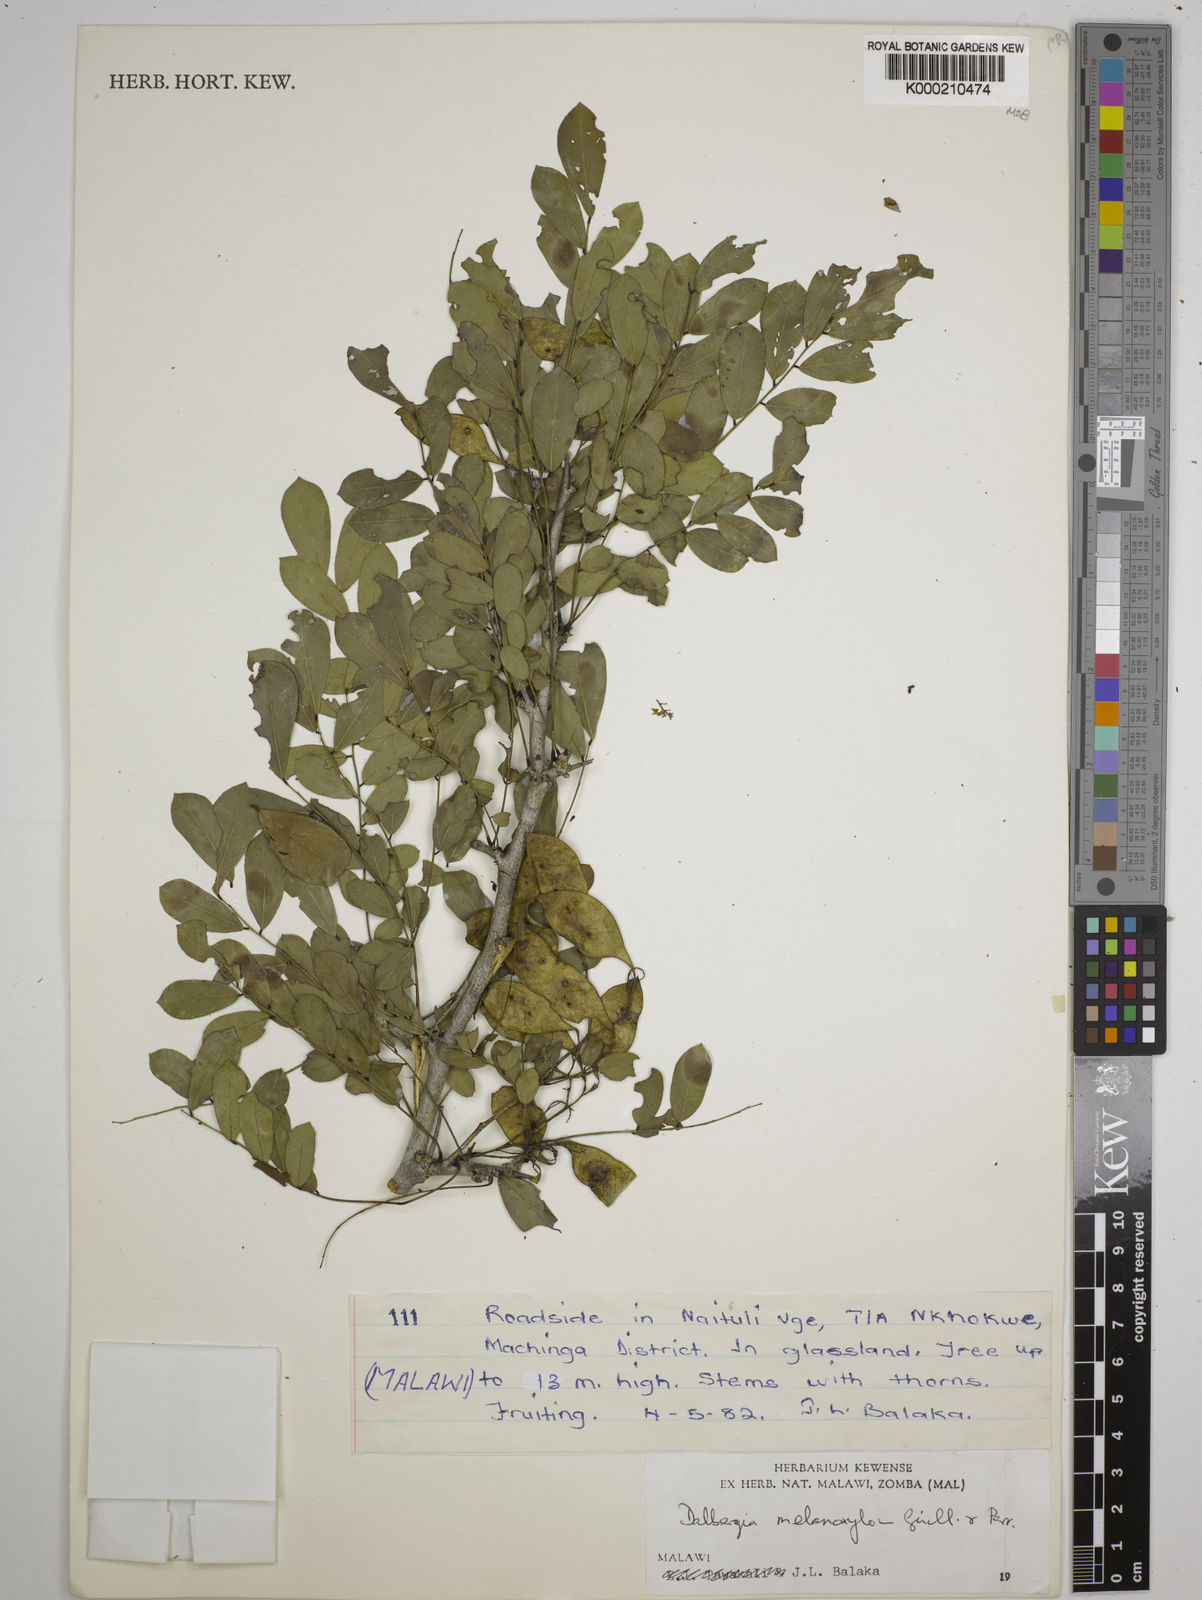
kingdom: Plantae
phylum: Tracheophyta
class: Magnoliopsida
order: Fabales
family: Fabaceae
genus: Dalbergia
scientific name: Dalbergia melanoxylon
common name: African blackwood
